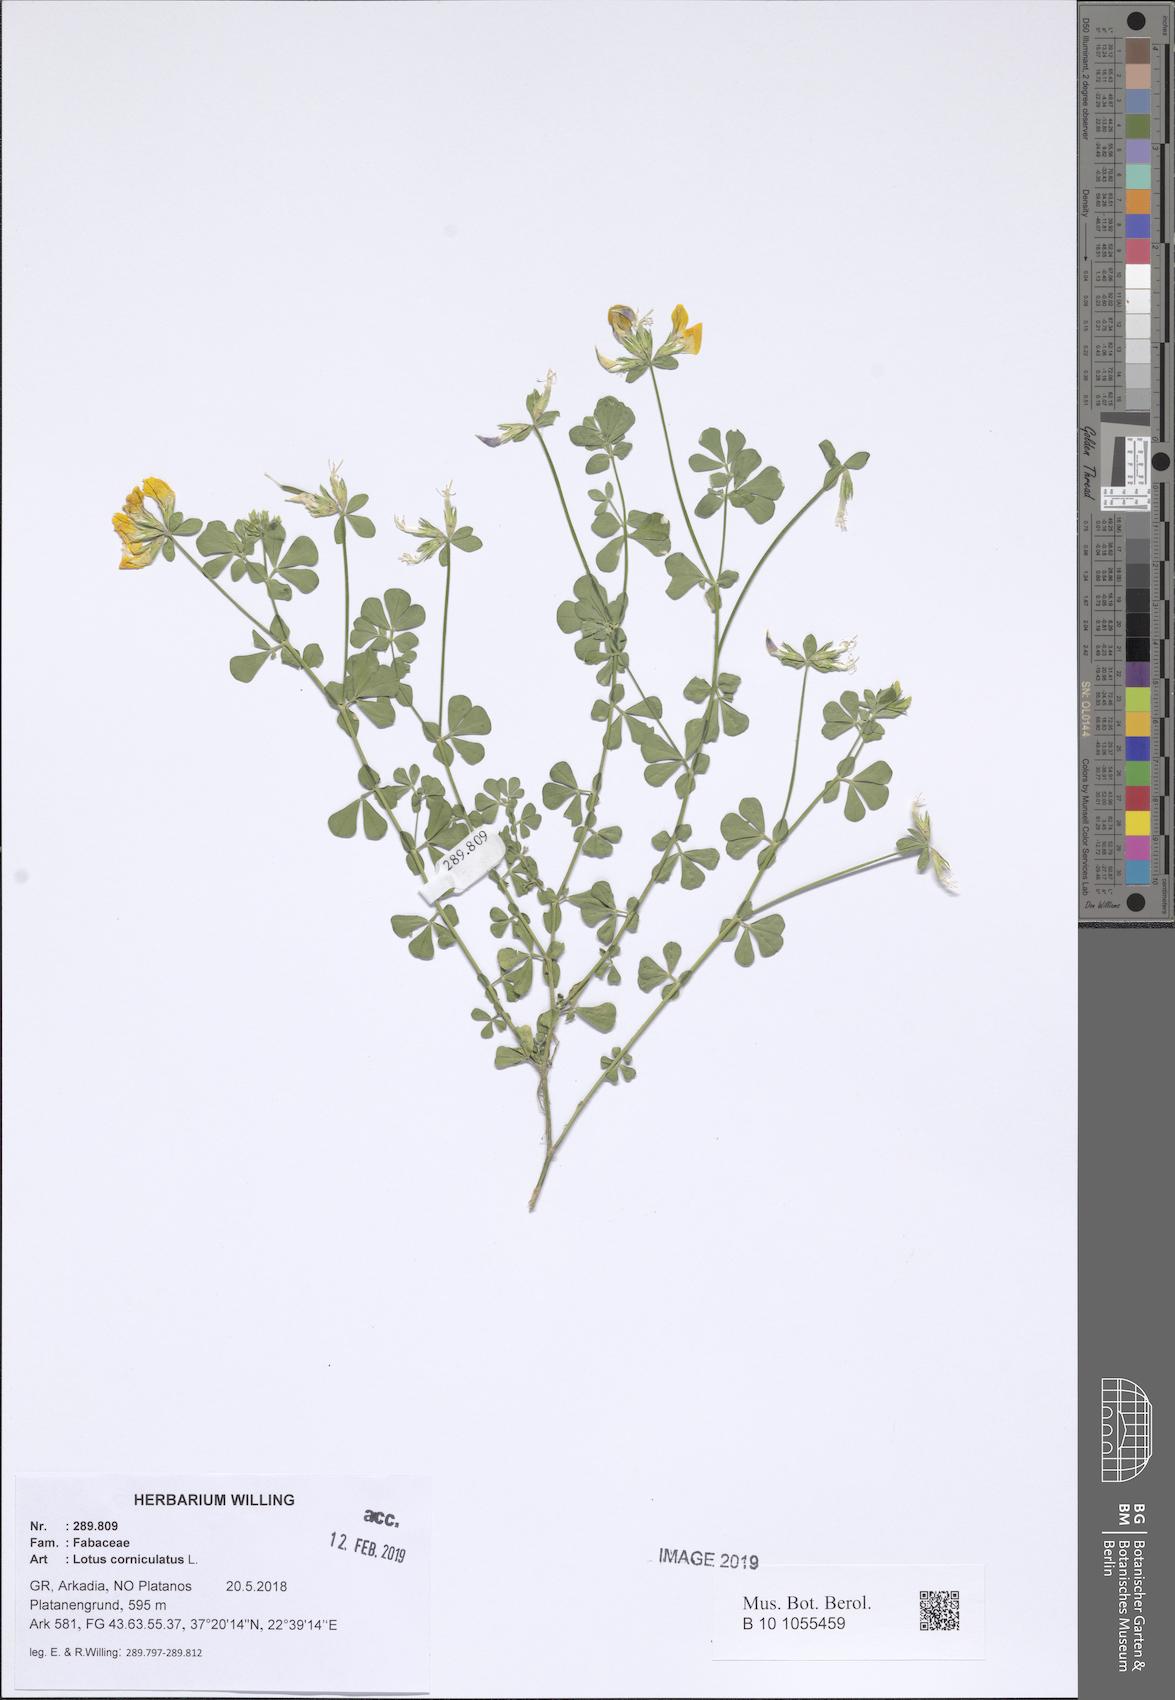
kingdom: Plantae
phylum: Tracheophyta
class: Magnoliopsida
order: Fabales
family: Fabaceae
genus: Lotus
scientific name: Lotus corniculatus
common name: Common bird's-foot-trefoil
